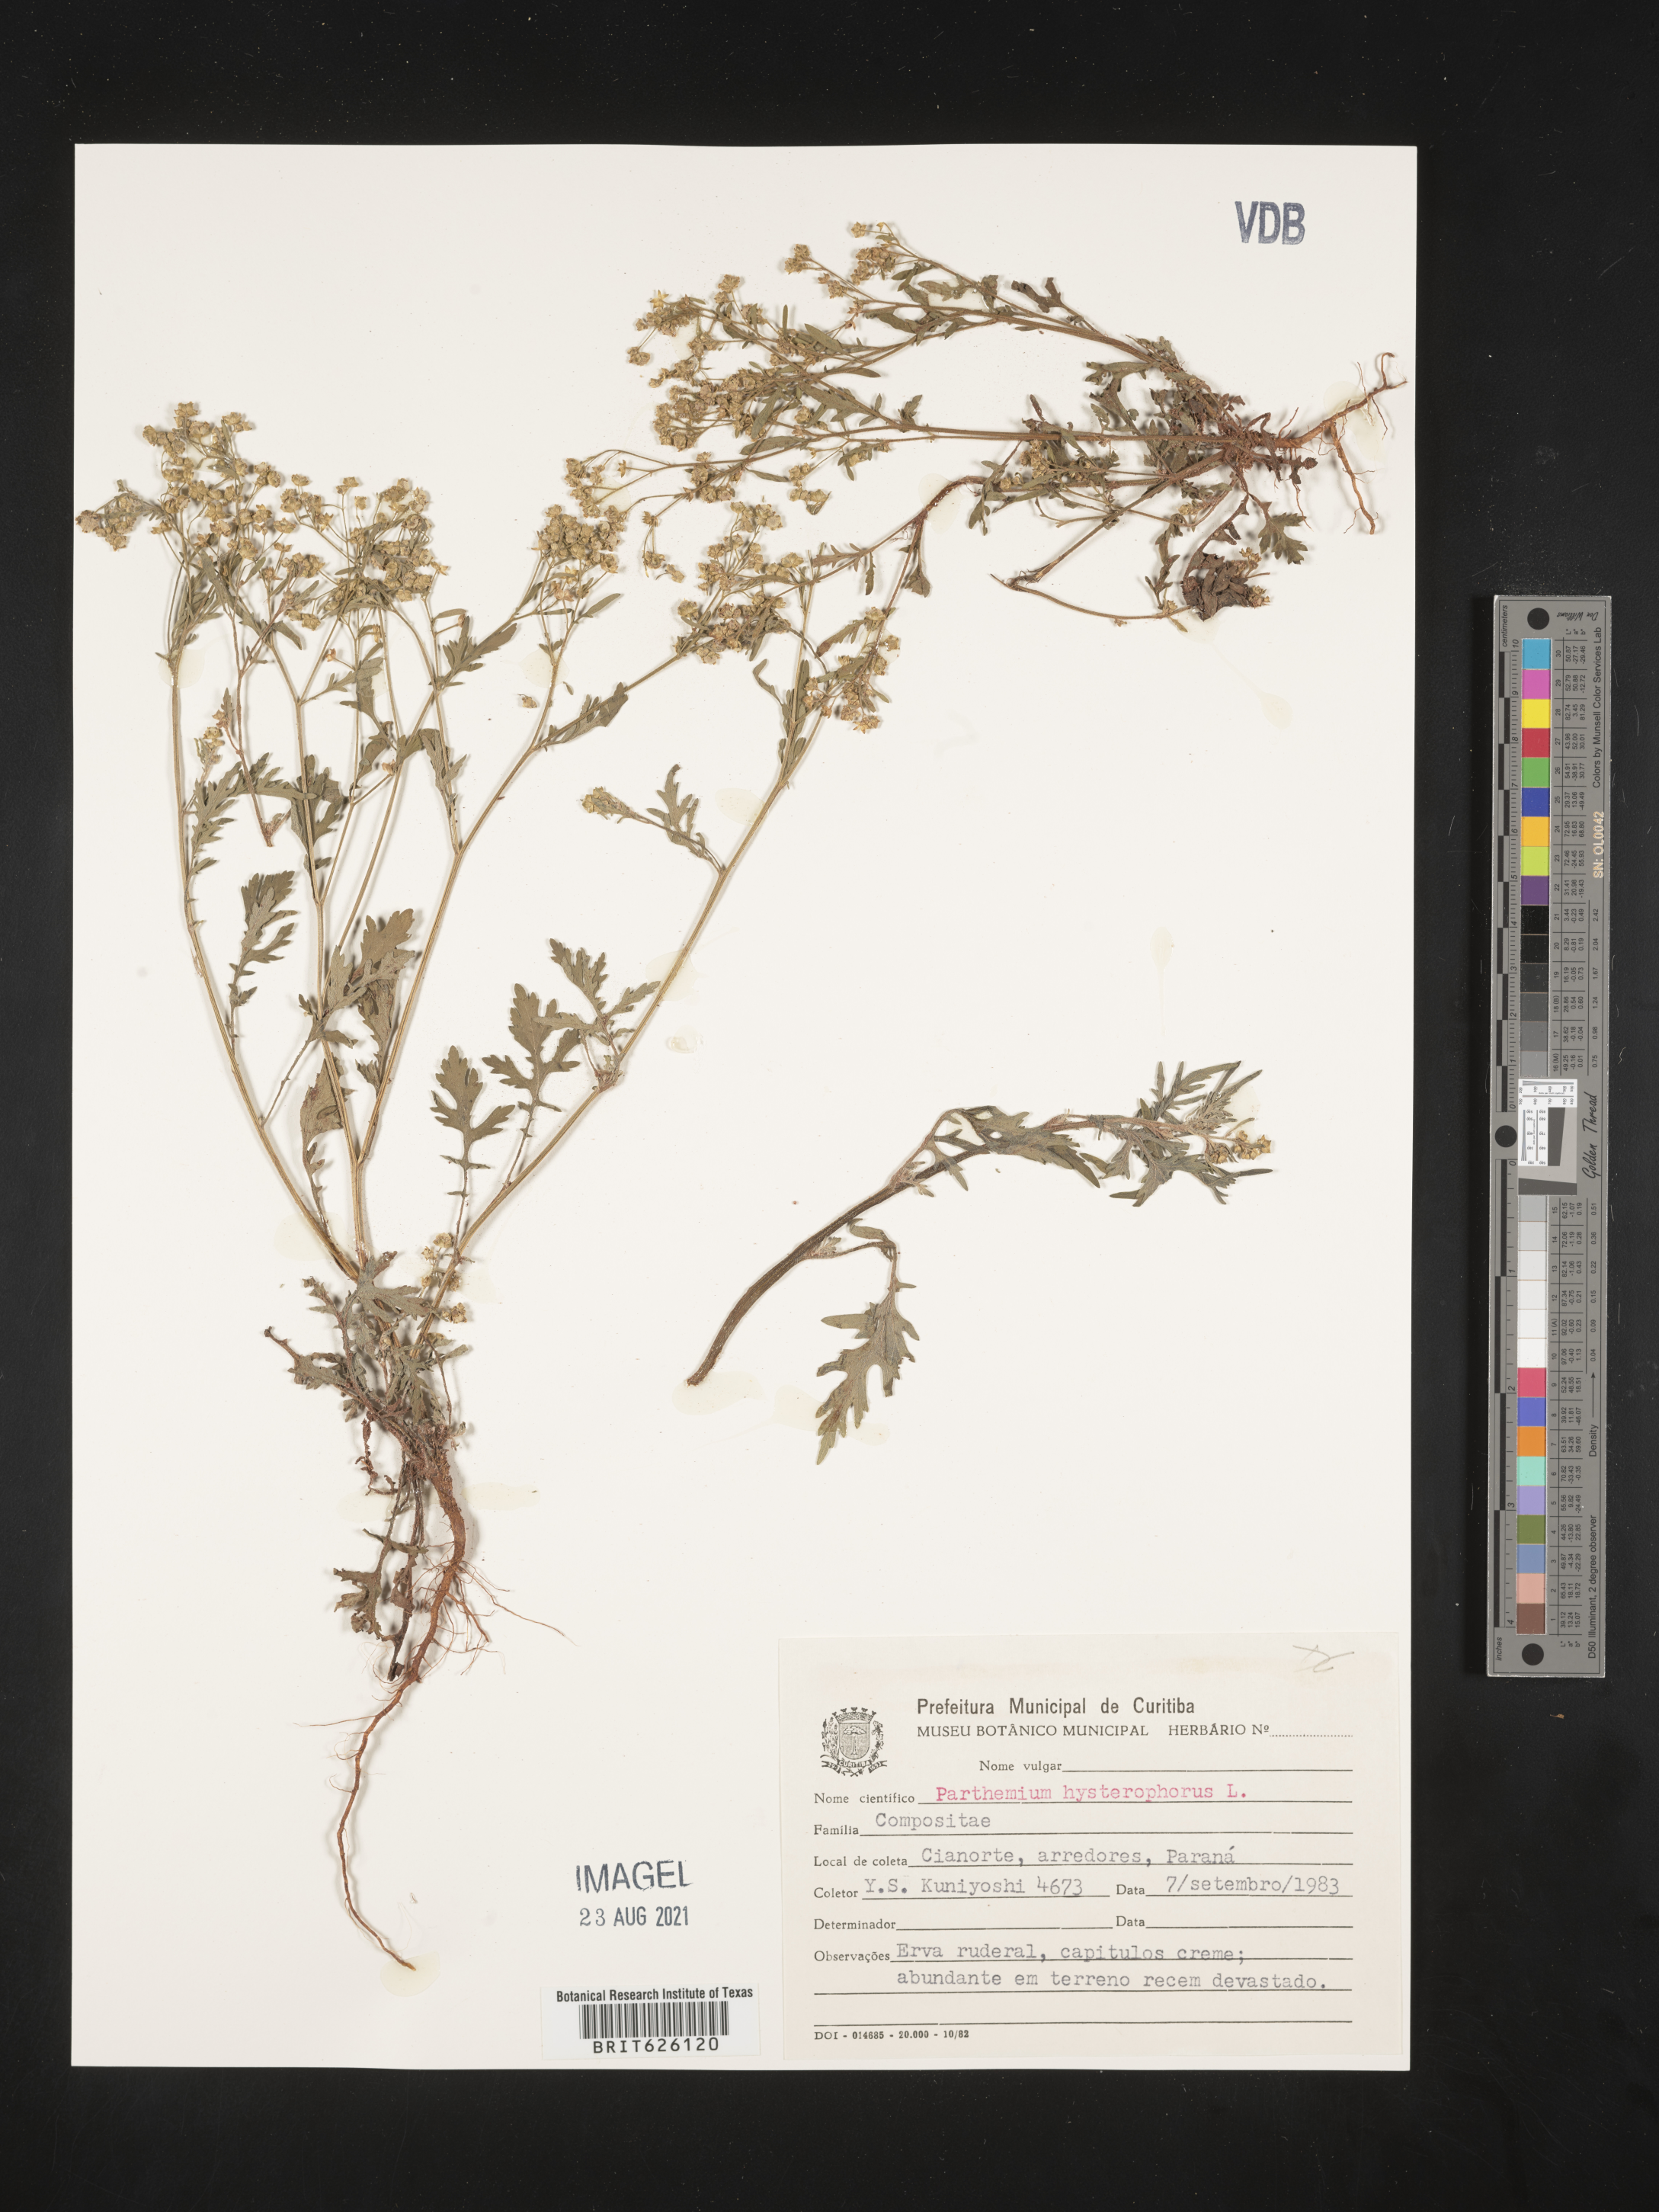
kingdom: Plantae
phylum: Tracheophyta
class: Magnoliopsida
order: Asterales
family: Asteraceae
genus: Parthenium
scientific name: Parthenium hysterophorus
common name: Santa maria feverfew
